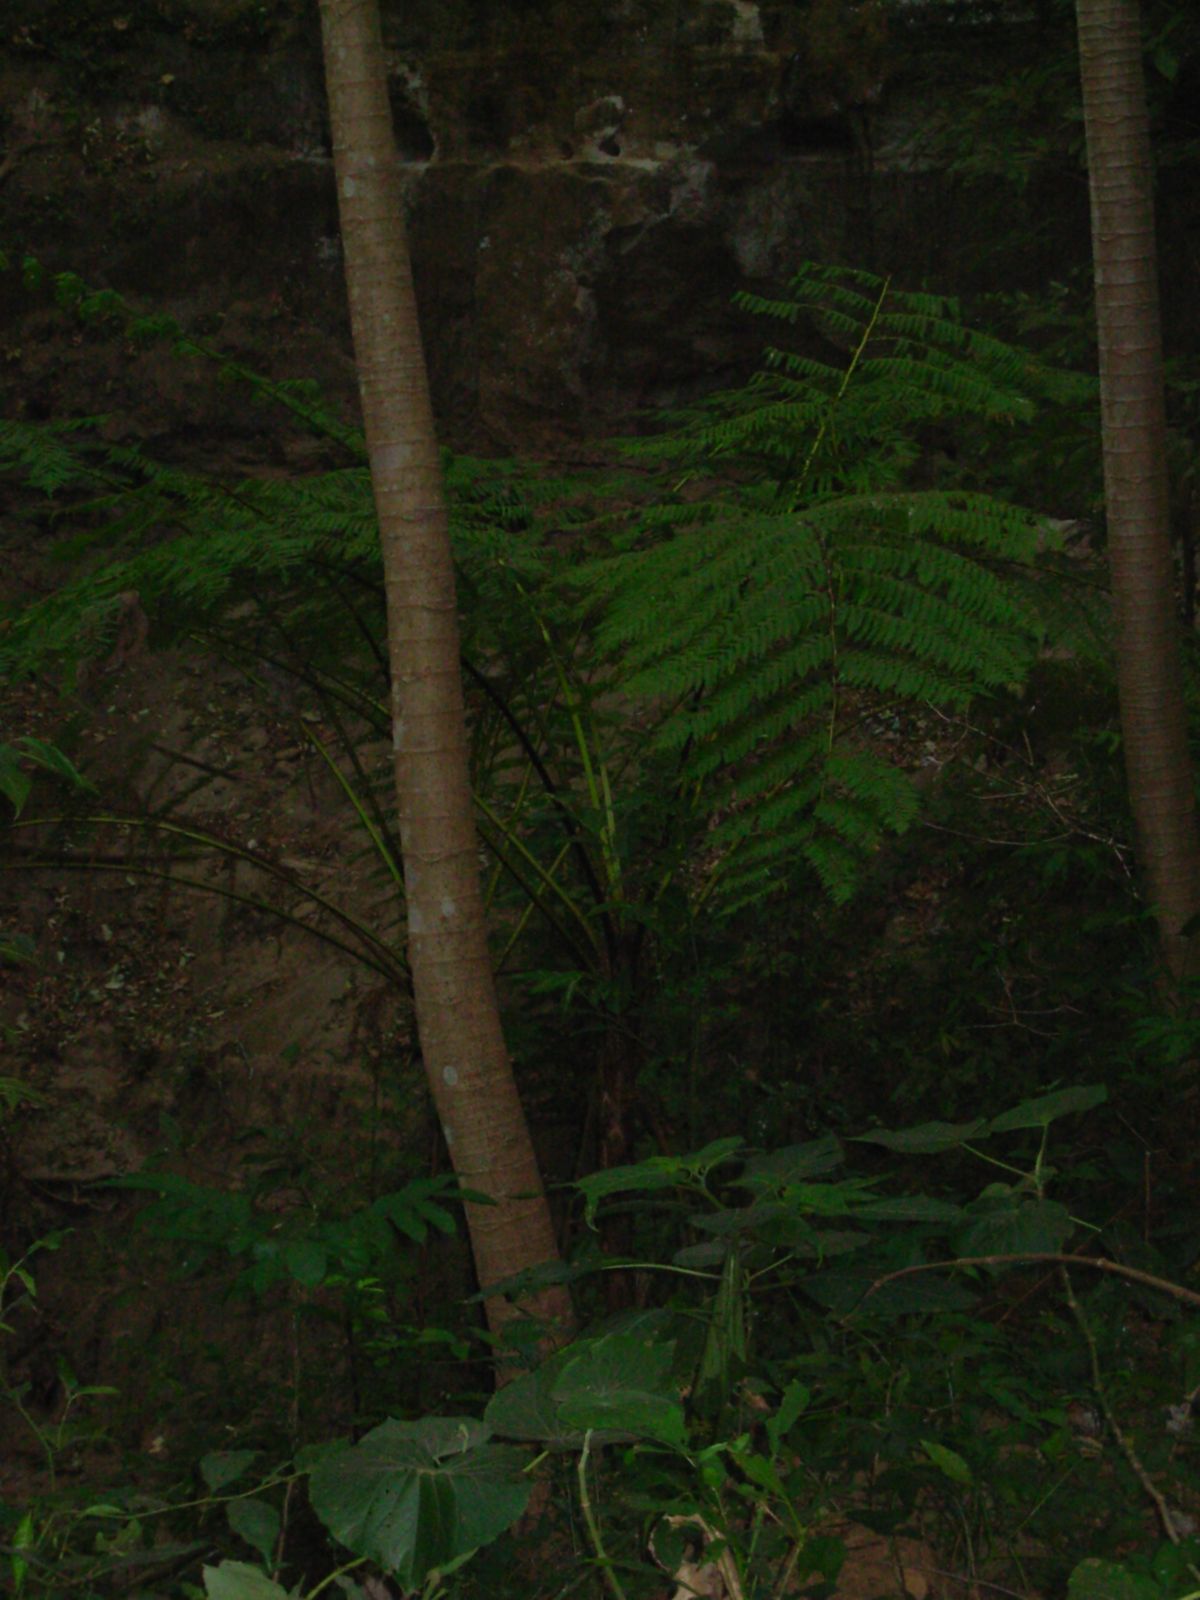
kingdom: Plantae
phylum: Tracheophyta
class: Polypodiopsida
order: Cyatheales
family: Cyatheaceae
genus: Cyathea
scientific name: Cyathea costaricensis
